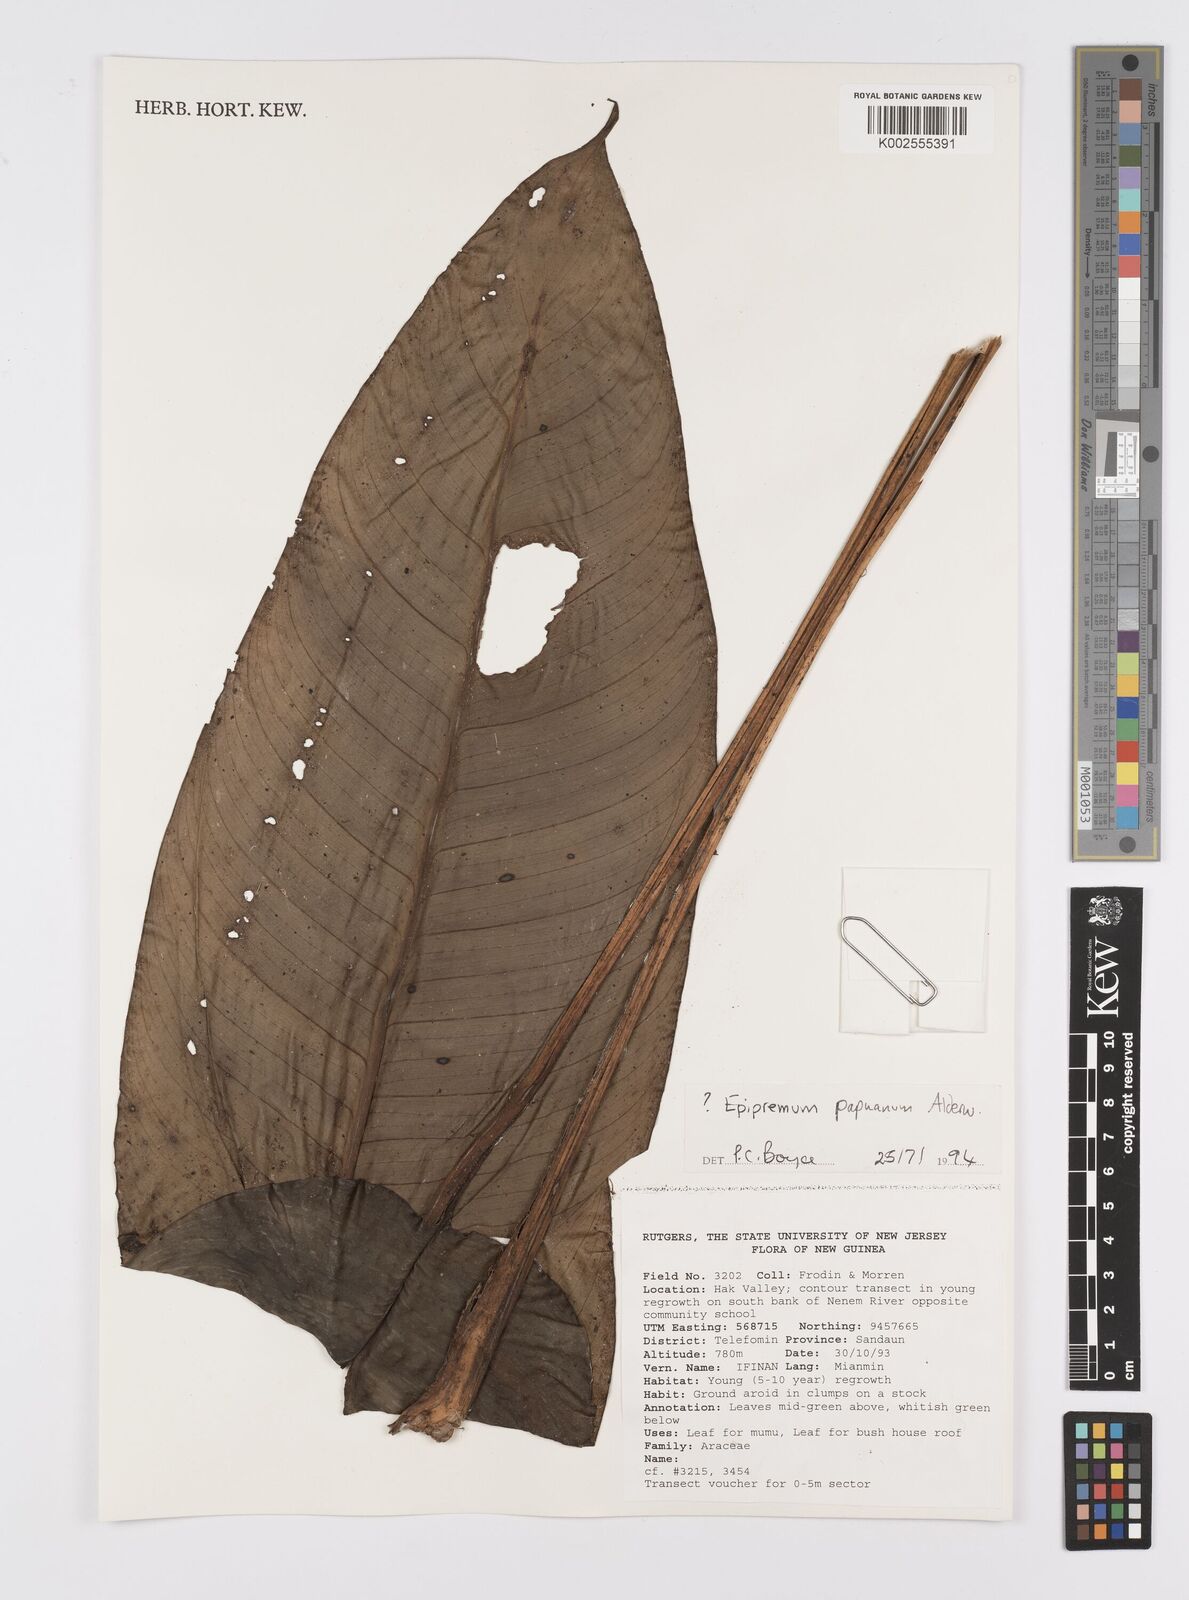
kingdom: Plantae
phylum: Tracheophyta
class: Liliopsida
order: Alismatales
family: Araceae
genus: Epipremnum
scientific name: Epipremnum papuanum
